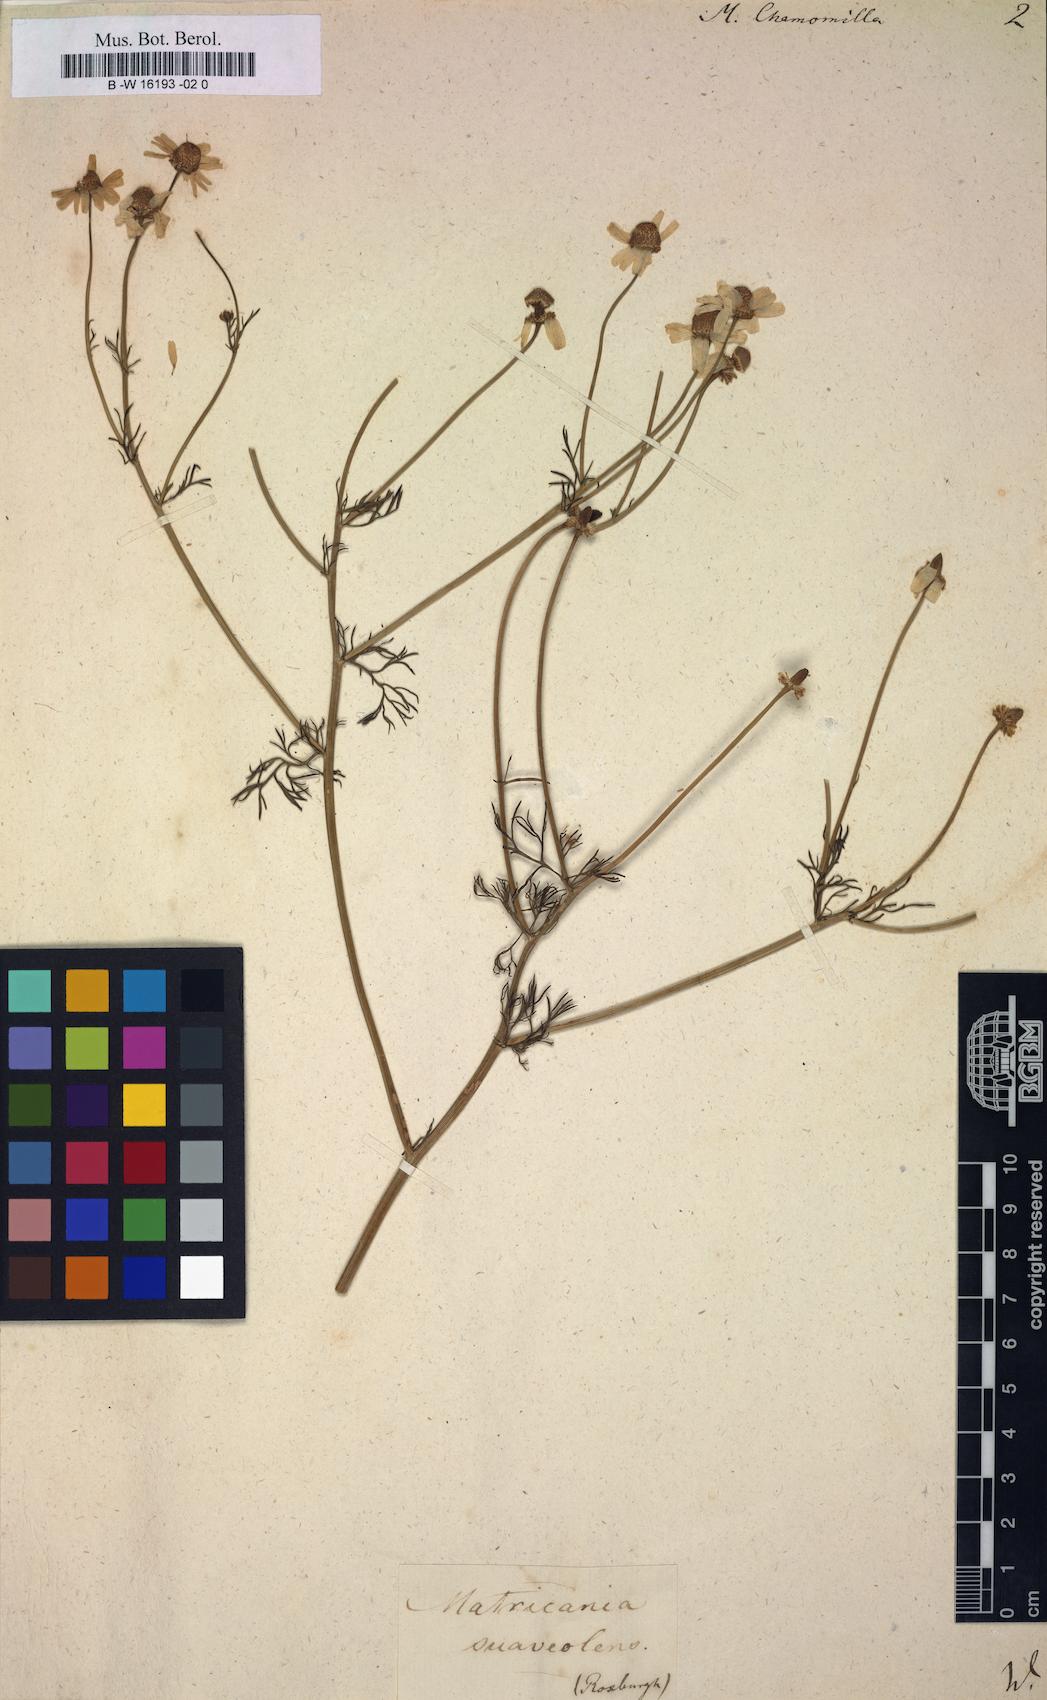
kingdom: Plantae
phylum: Tracheophyta
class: Magnoliopsida
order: Asterales
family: Asteraceae
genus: Matricaria
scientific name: Matricaria chamomilla
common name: Scented mayweed
